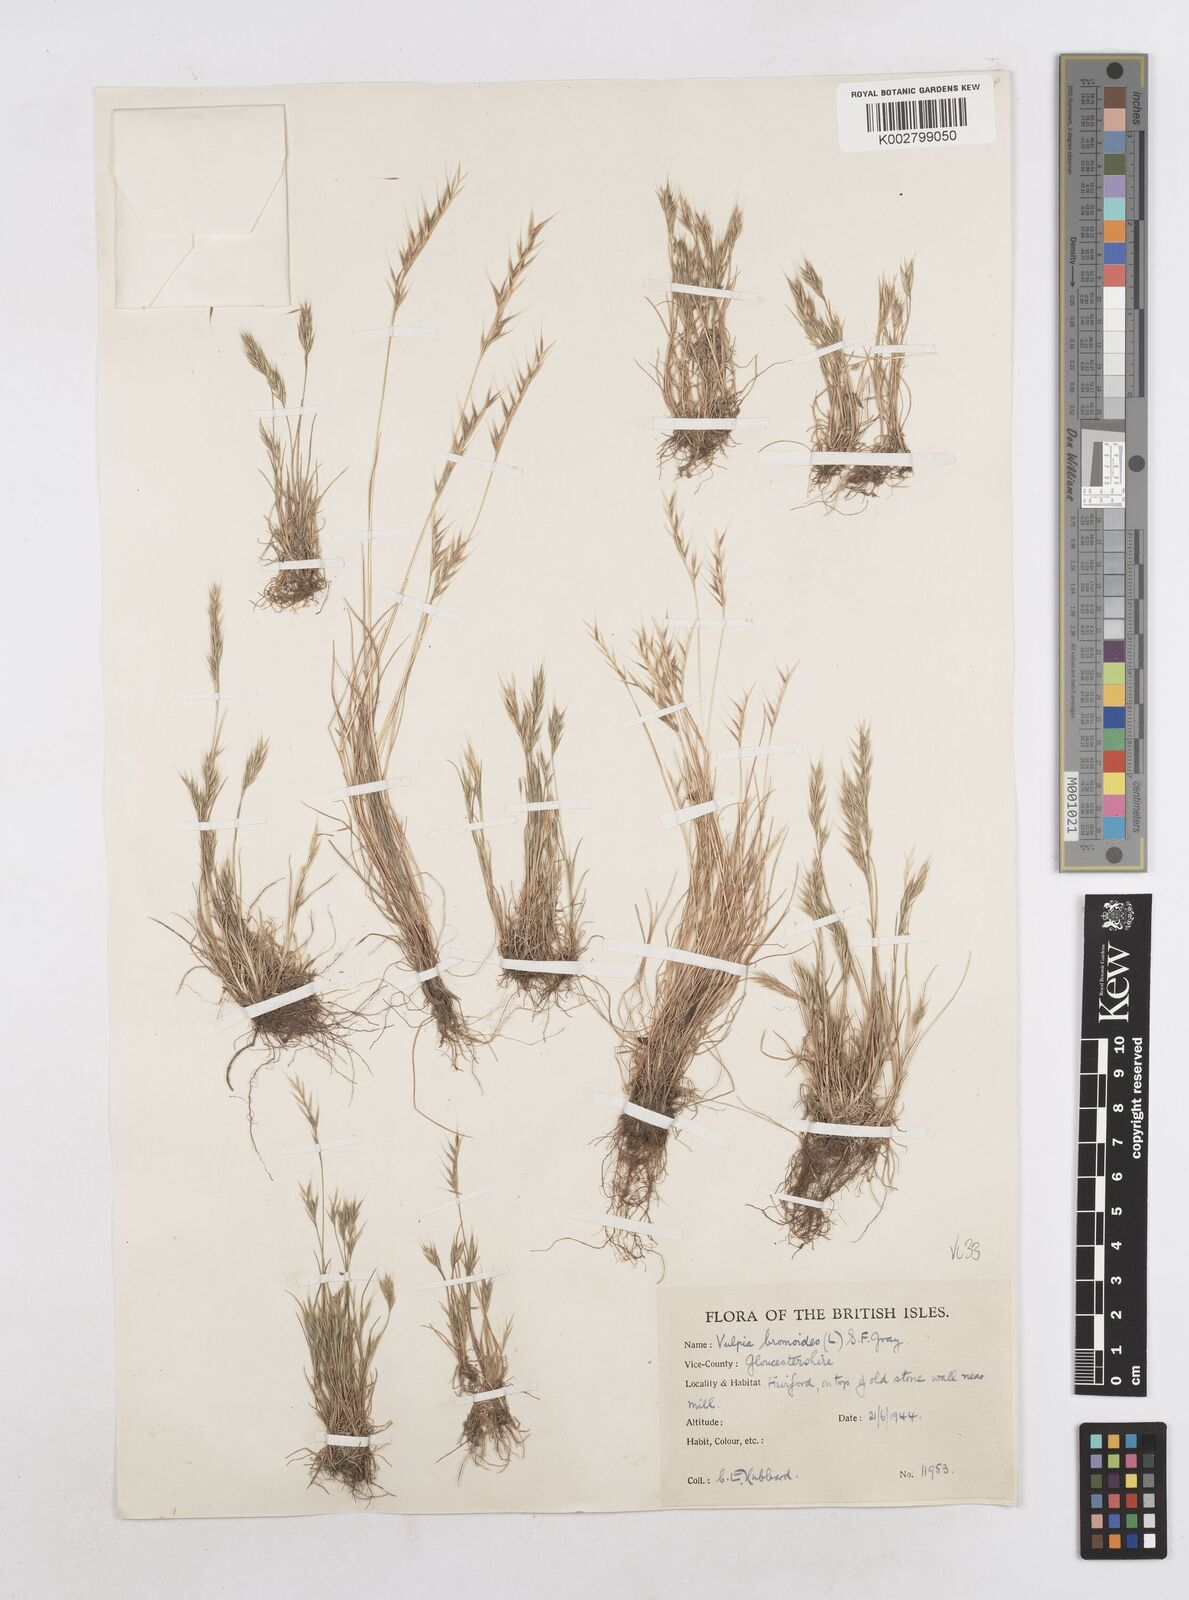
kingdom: Plantae
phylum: Tracheophyta
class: Liliopsida
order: Poales
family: Poaceae
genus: Festuca
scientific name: Festuca bromoides
